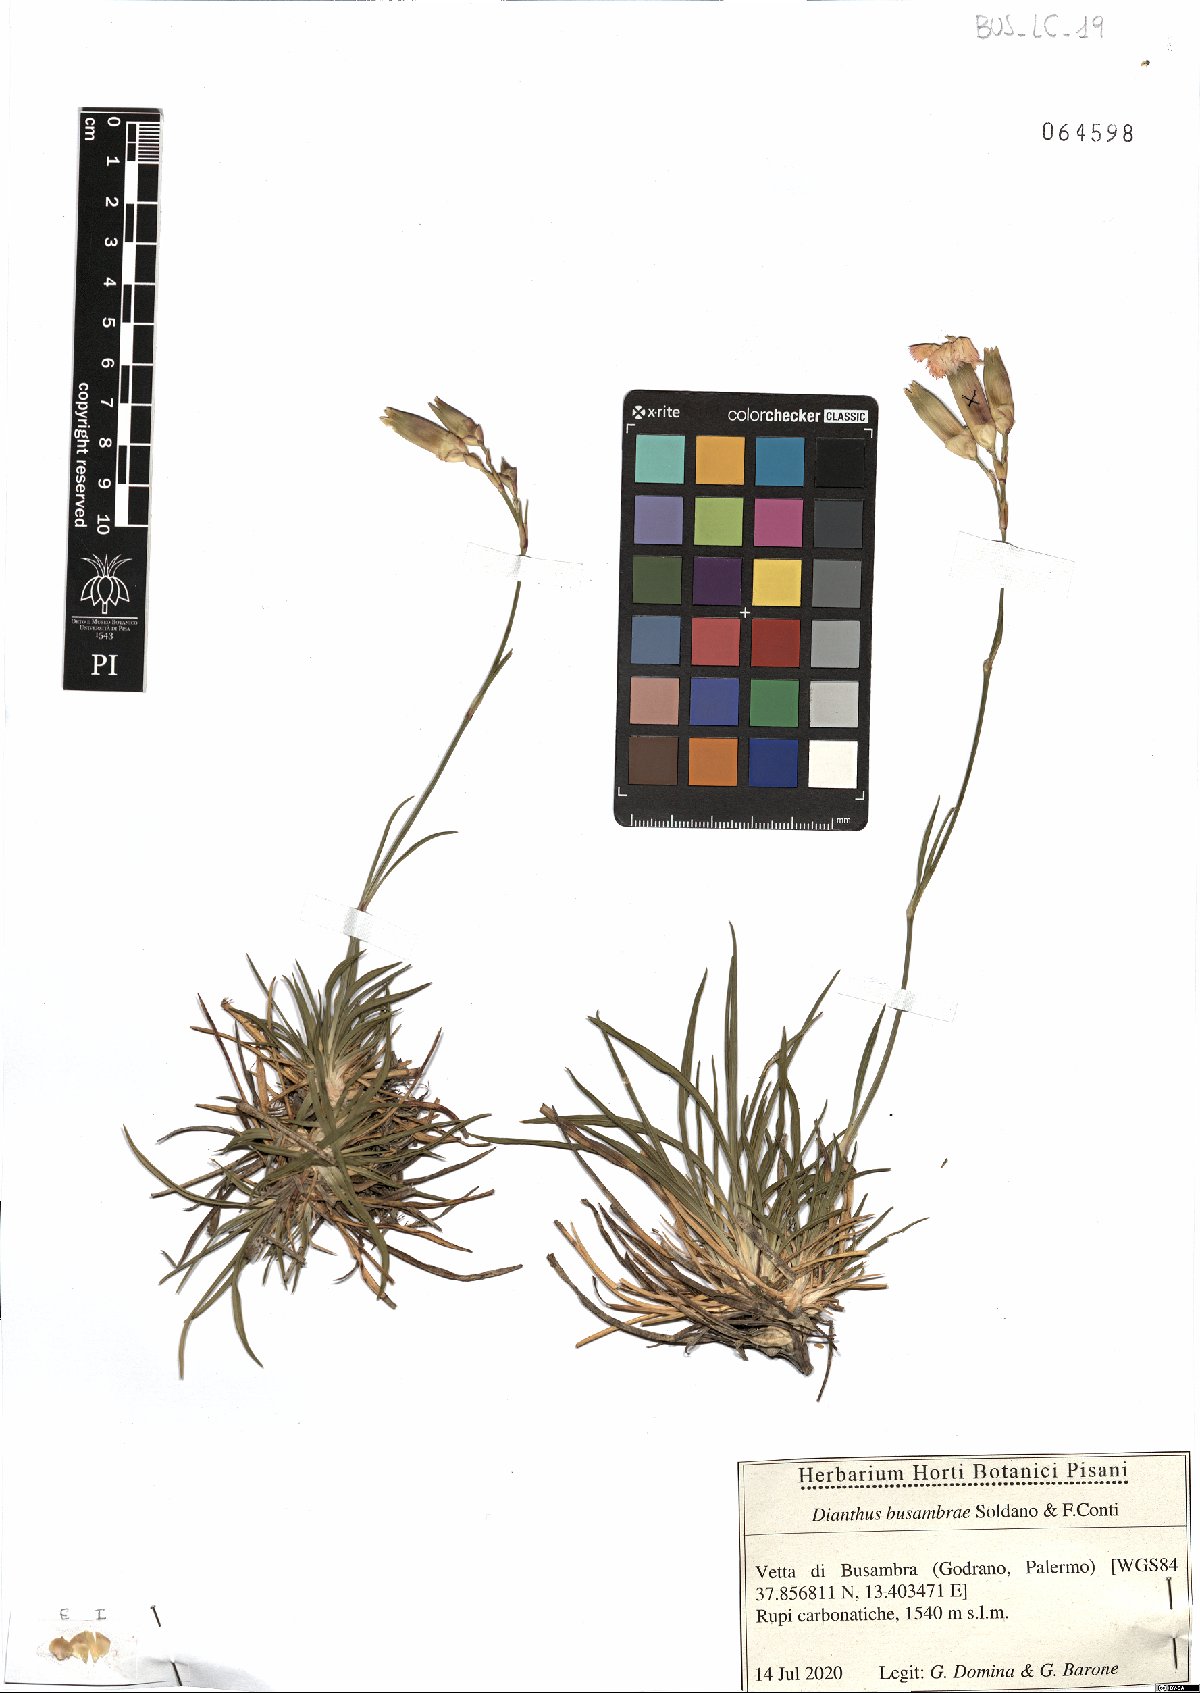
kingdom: Plantae
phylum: Tracheophyta
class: Magnoliopsida
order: Caryophyllales
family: Caryophyllaceae
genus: Dianthus
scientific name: Dianthus busambrae
